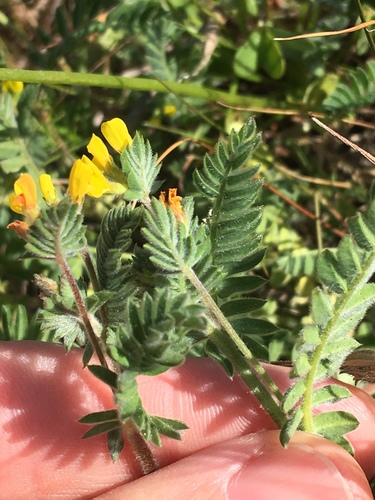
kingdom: Plantae
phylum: Tracheophyta
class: Magnoliopsida
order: Fabales
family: Fabaceae
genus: Ornithopus
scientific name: Ornithopus compressus
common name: Yellow serradella
